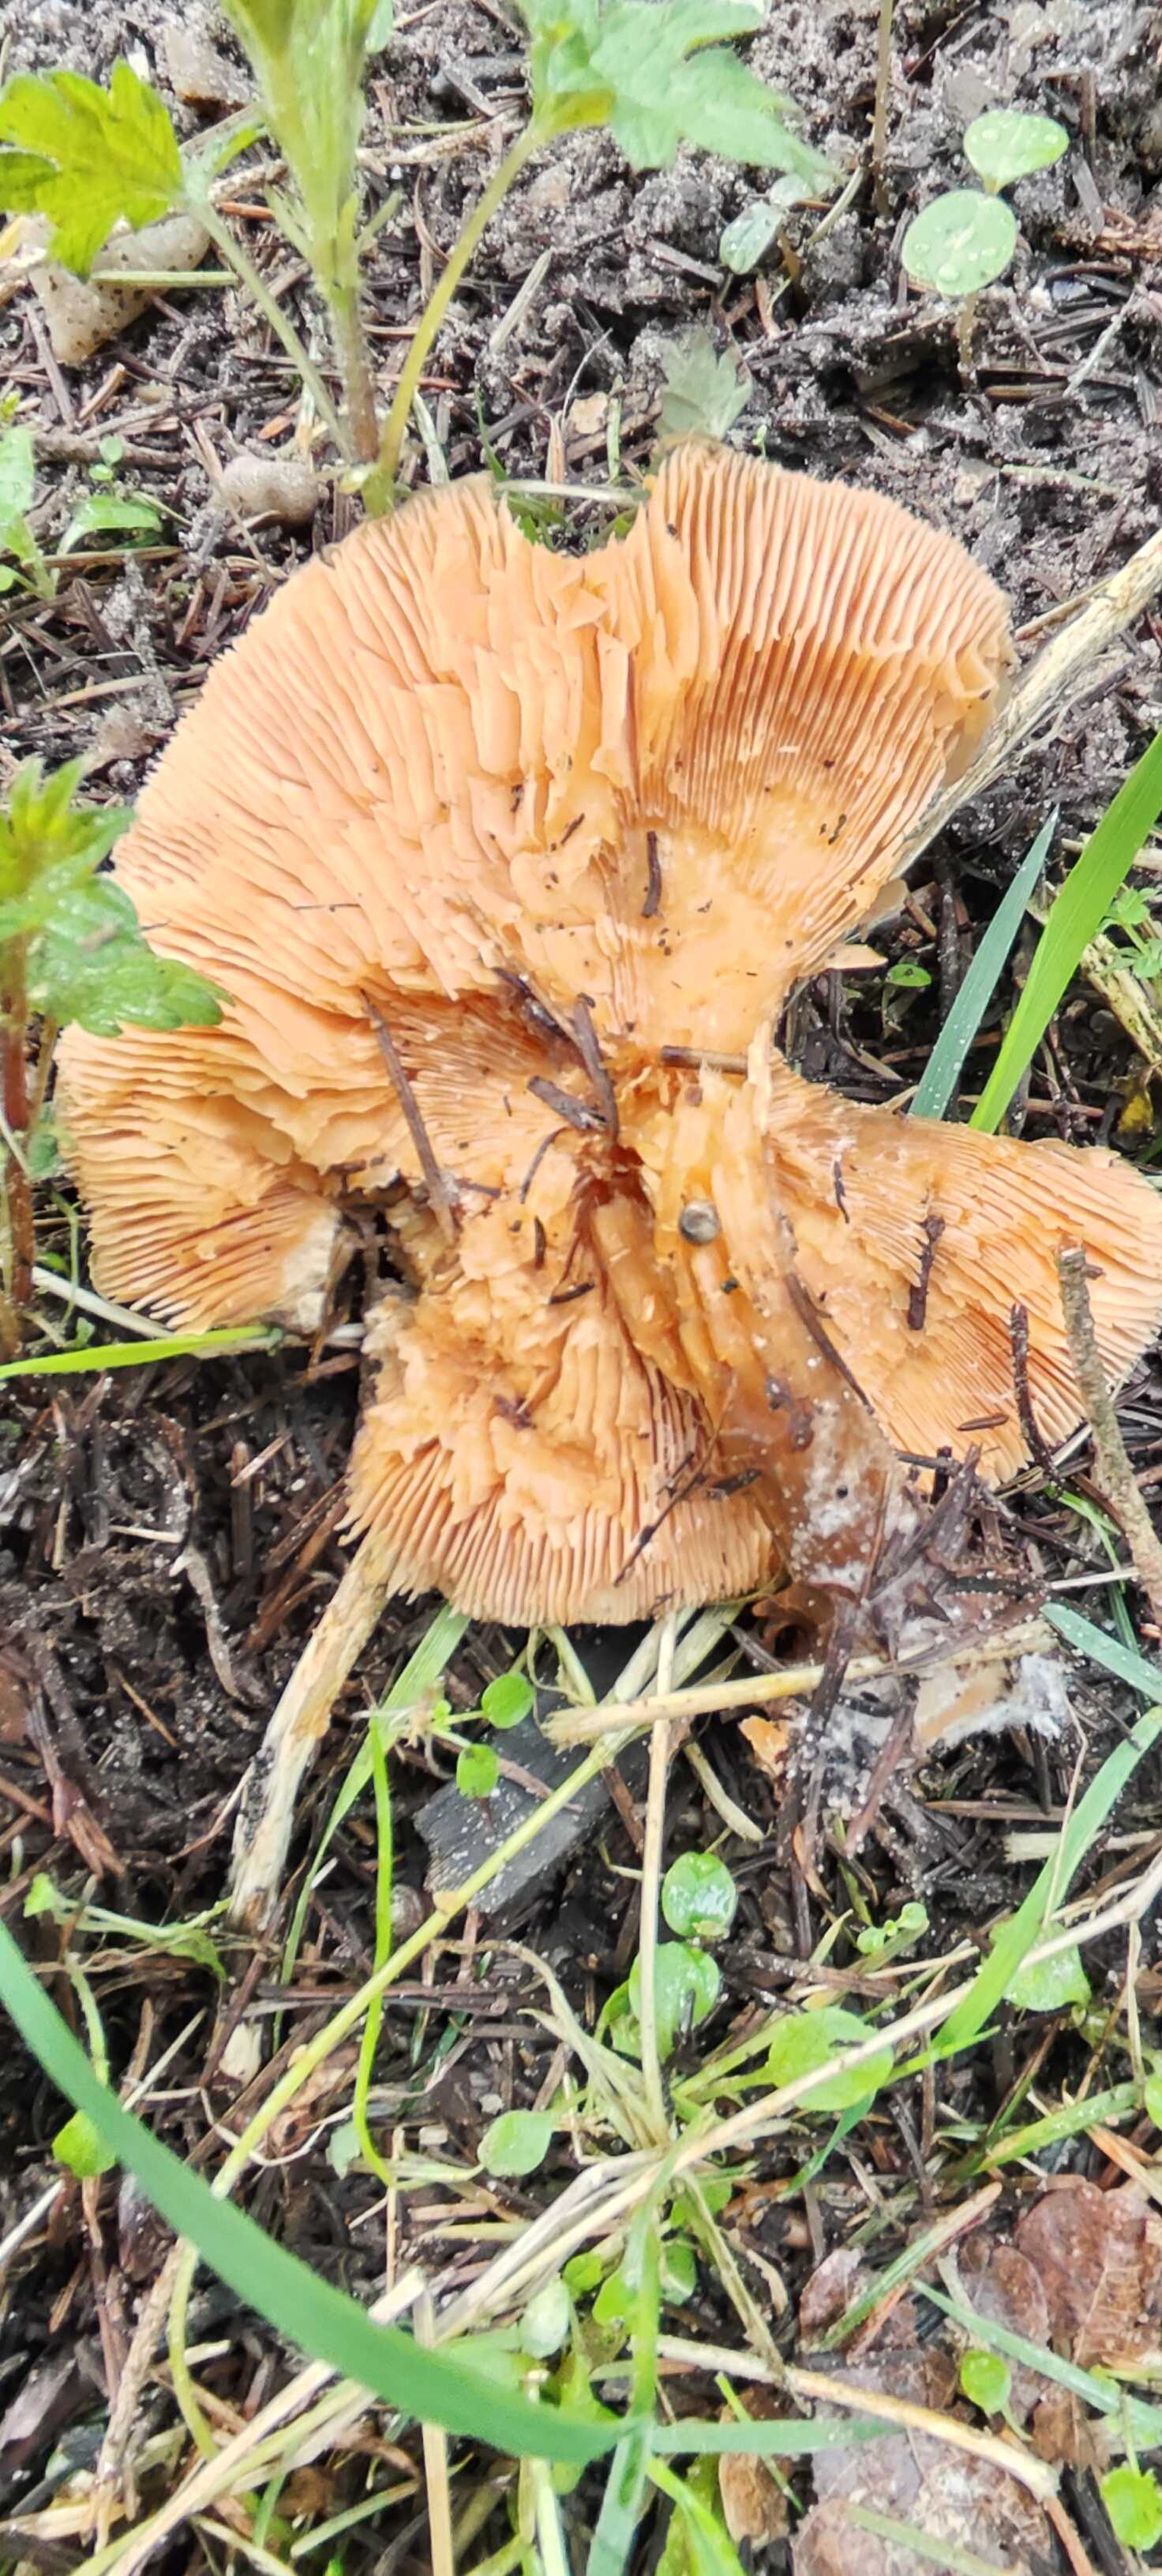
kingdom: Fungi
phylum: Basidiomycota
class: Agaricomycetes
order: Agaricales
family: Tricholomataceae
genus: Melanoleuca
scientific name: Melanoleuca cognata
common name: gyldengrå munkehat
